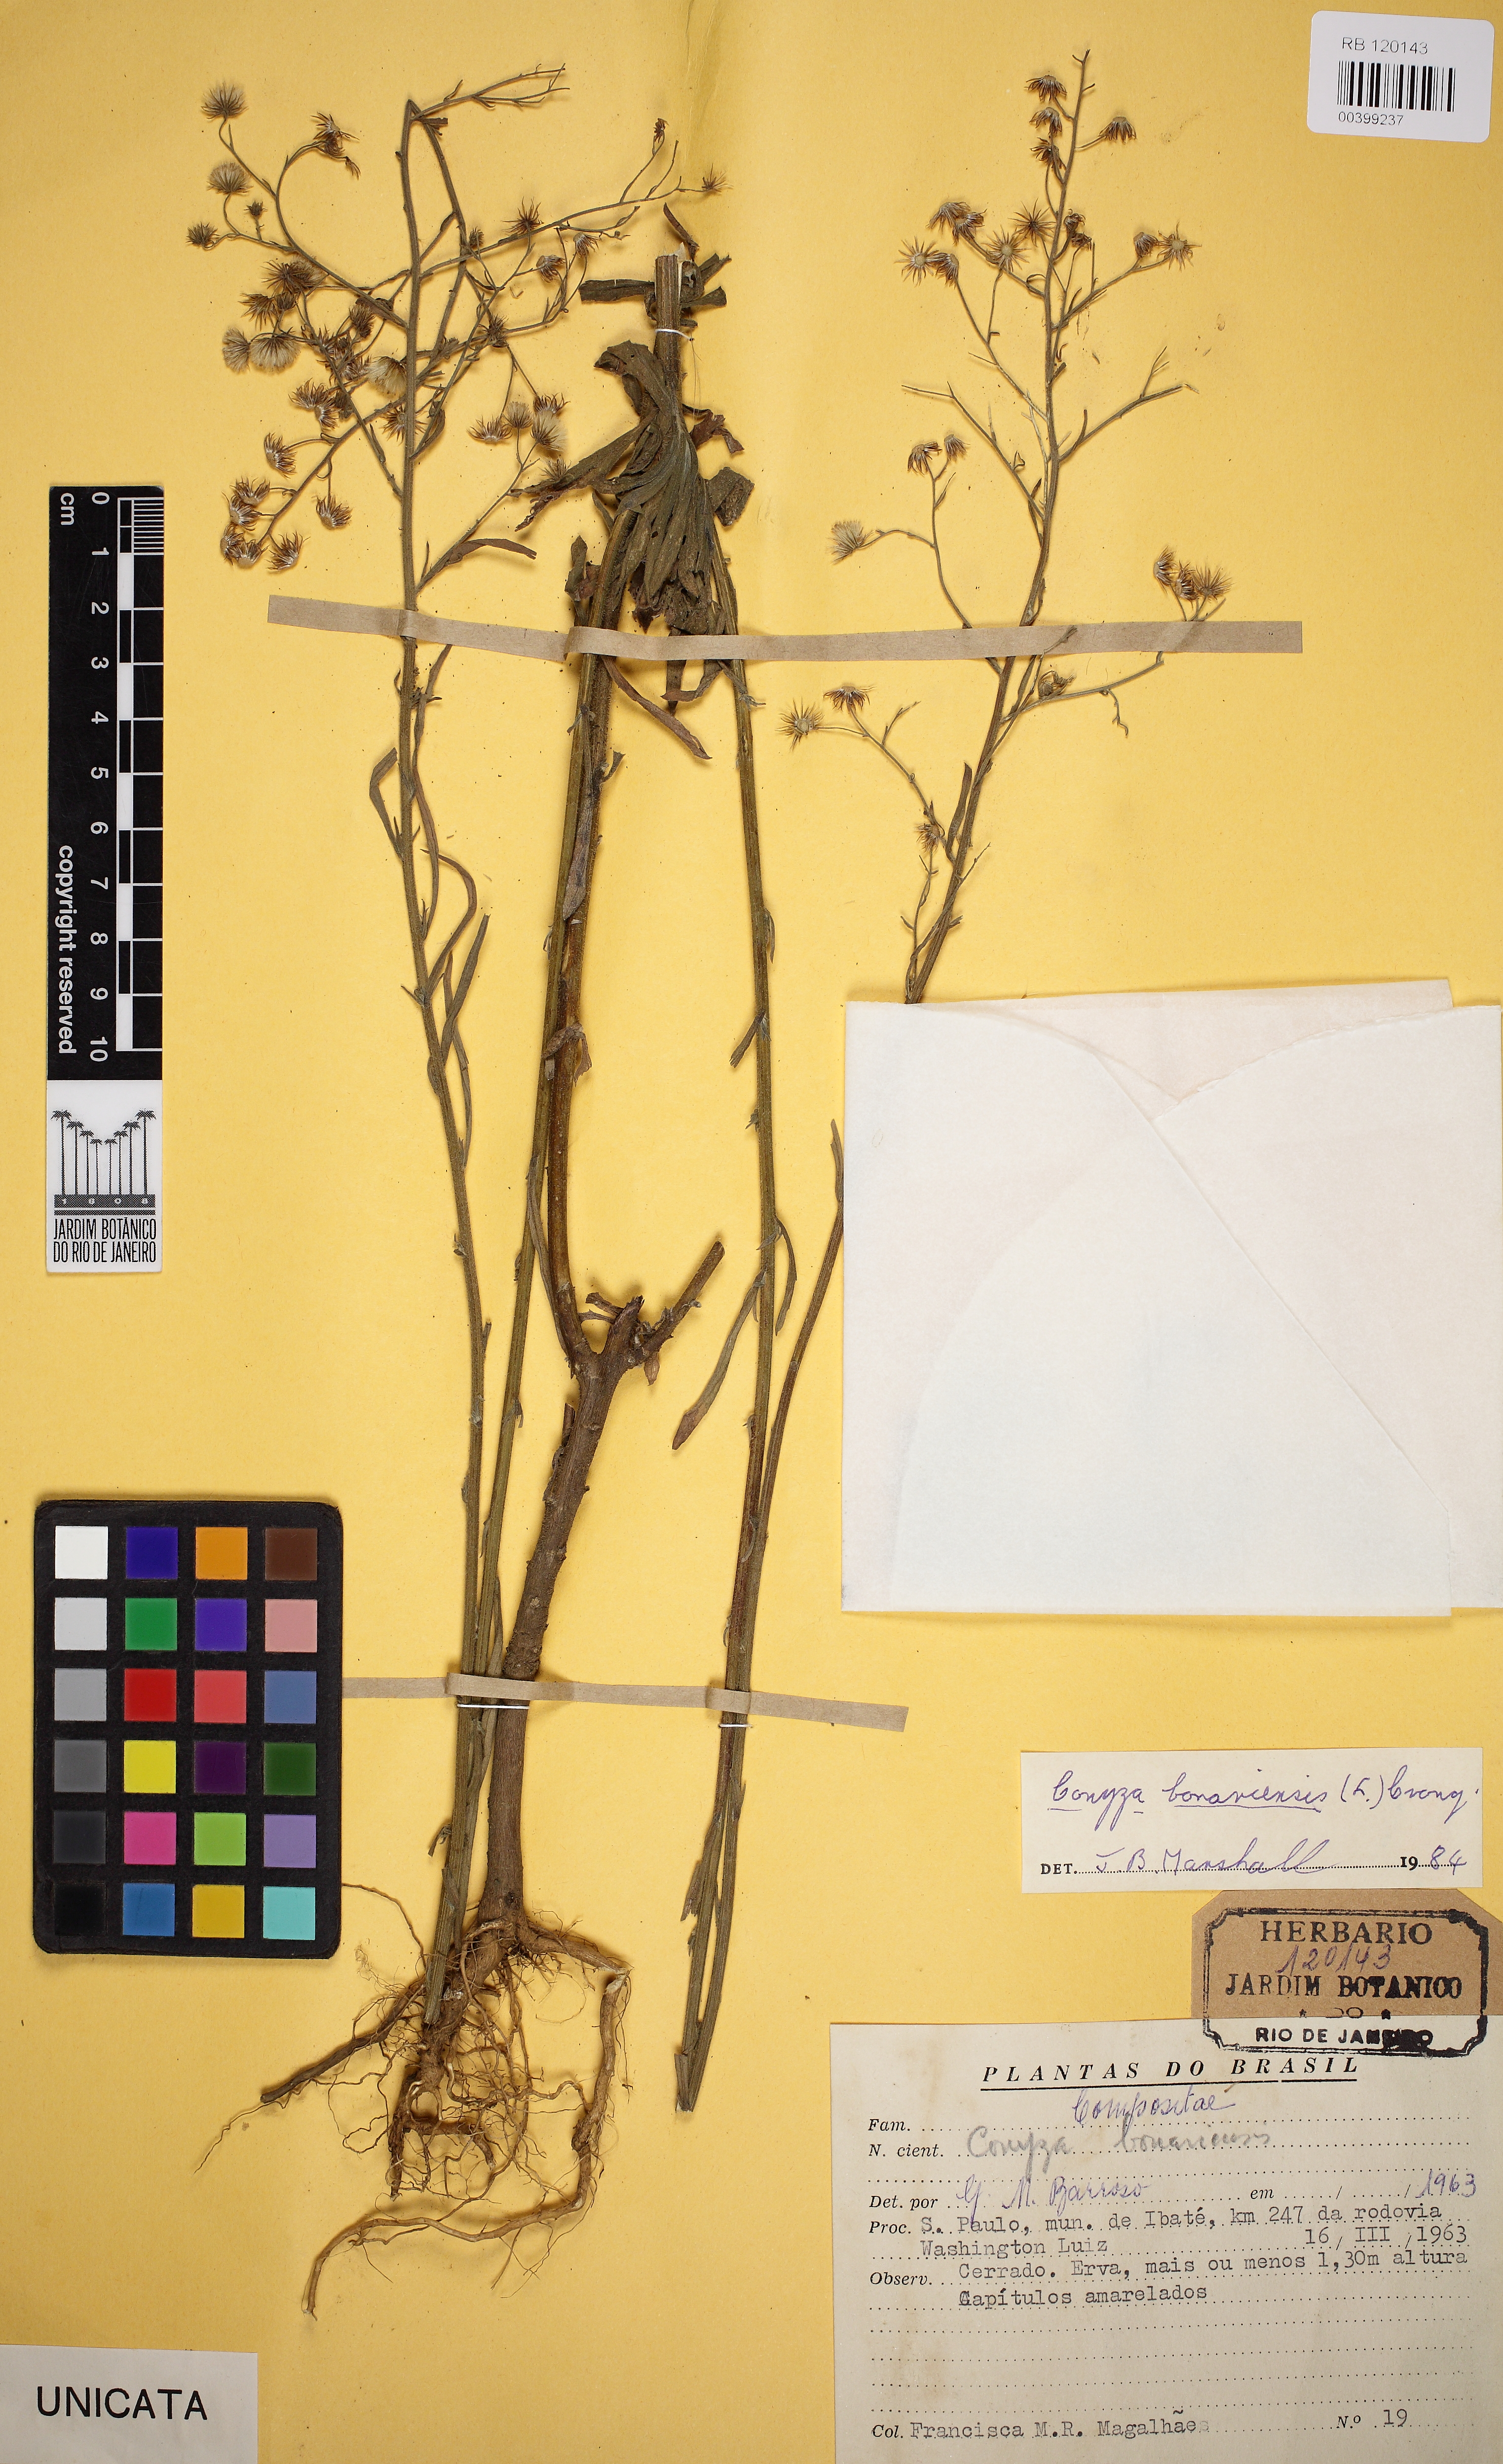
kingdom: Plantae
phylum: Tracheophyta
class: Magnoliopsida
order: Asterales
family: Asteraceae
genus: Erigeron
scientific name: Erigeron bonariensis
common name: Argentine fleabane
